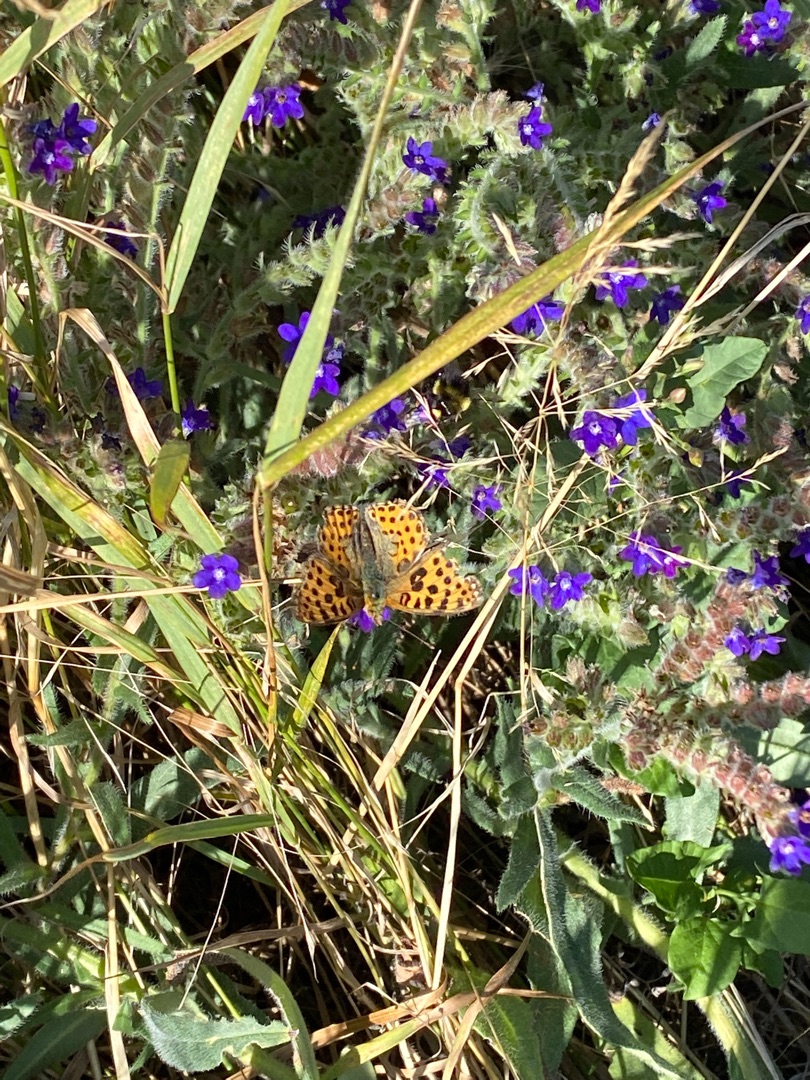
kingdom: Animalia
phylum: Arthropoda
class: Insecta
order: Lepidoptera
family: Nymphalidae
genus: Issoria
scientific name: Issoria lathonia
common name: Storplettet perlemorsommerfugl
